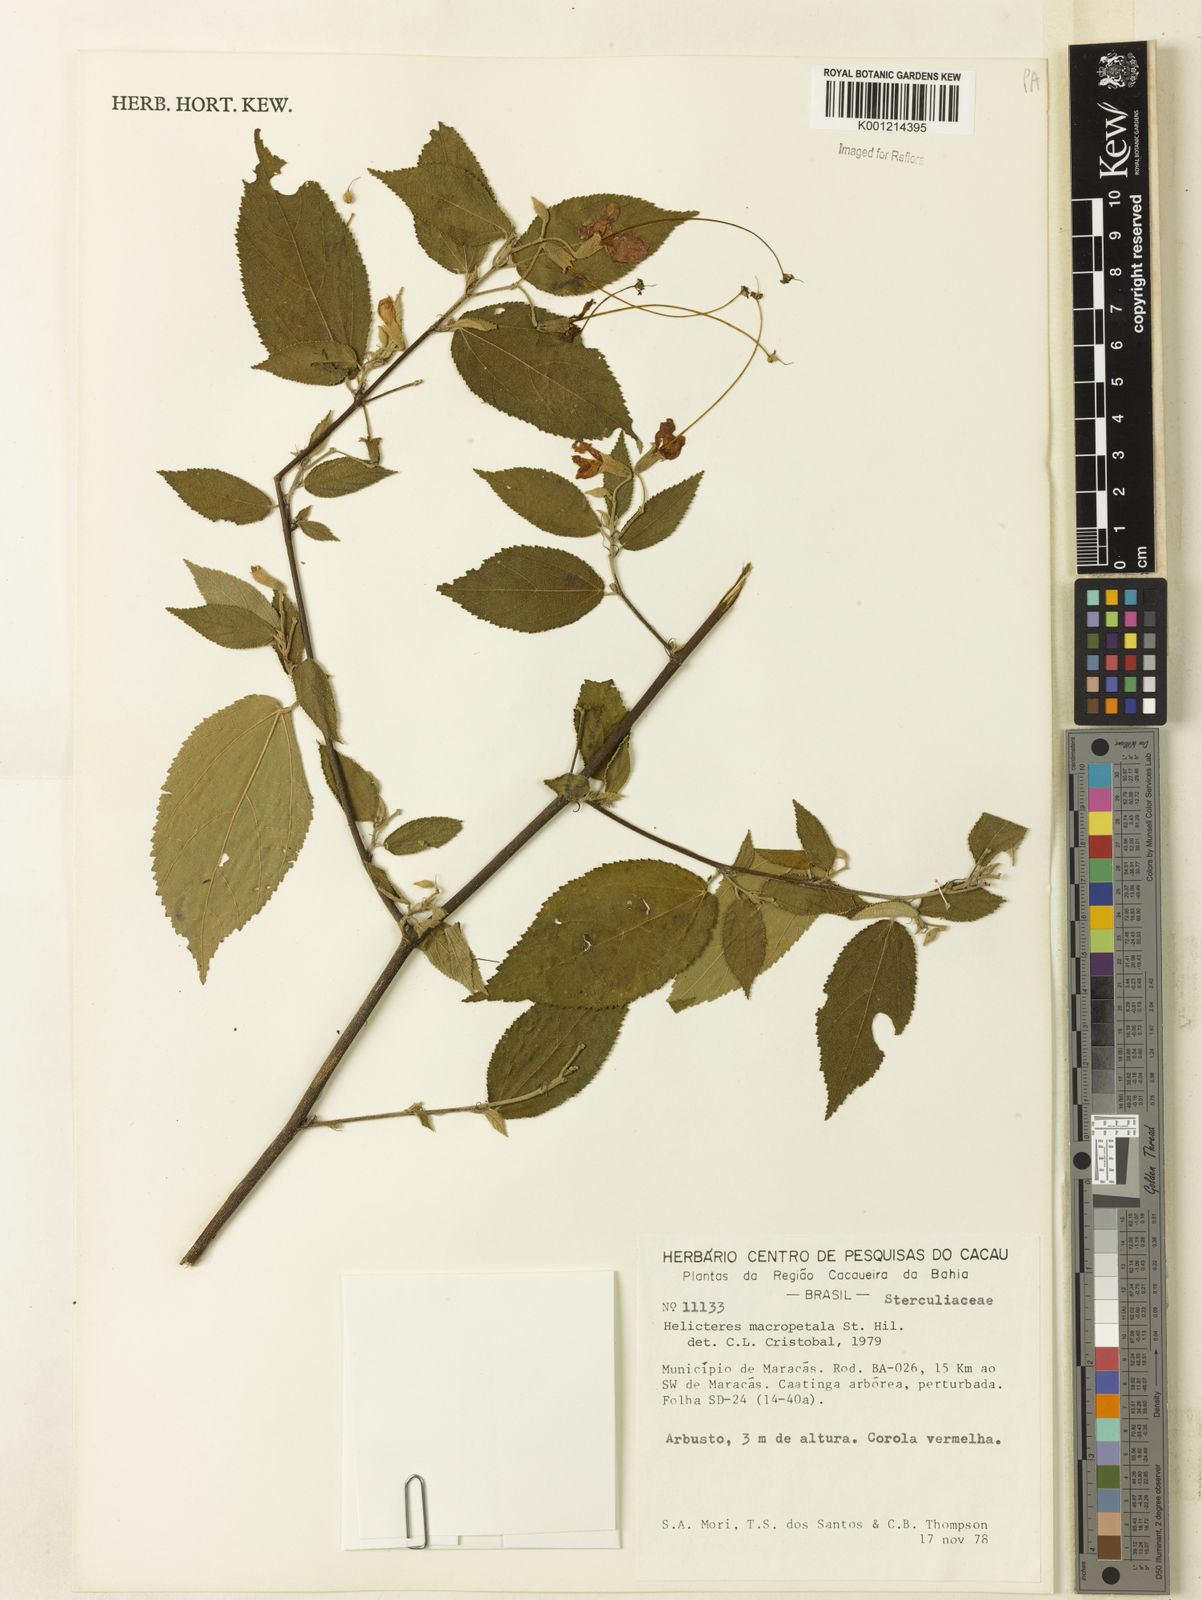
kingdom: Plantae
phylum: Tracheophyta
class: Magnoliopsida
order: Malvales
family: Malvaceae
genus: Helicteres
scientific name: Helicteres
